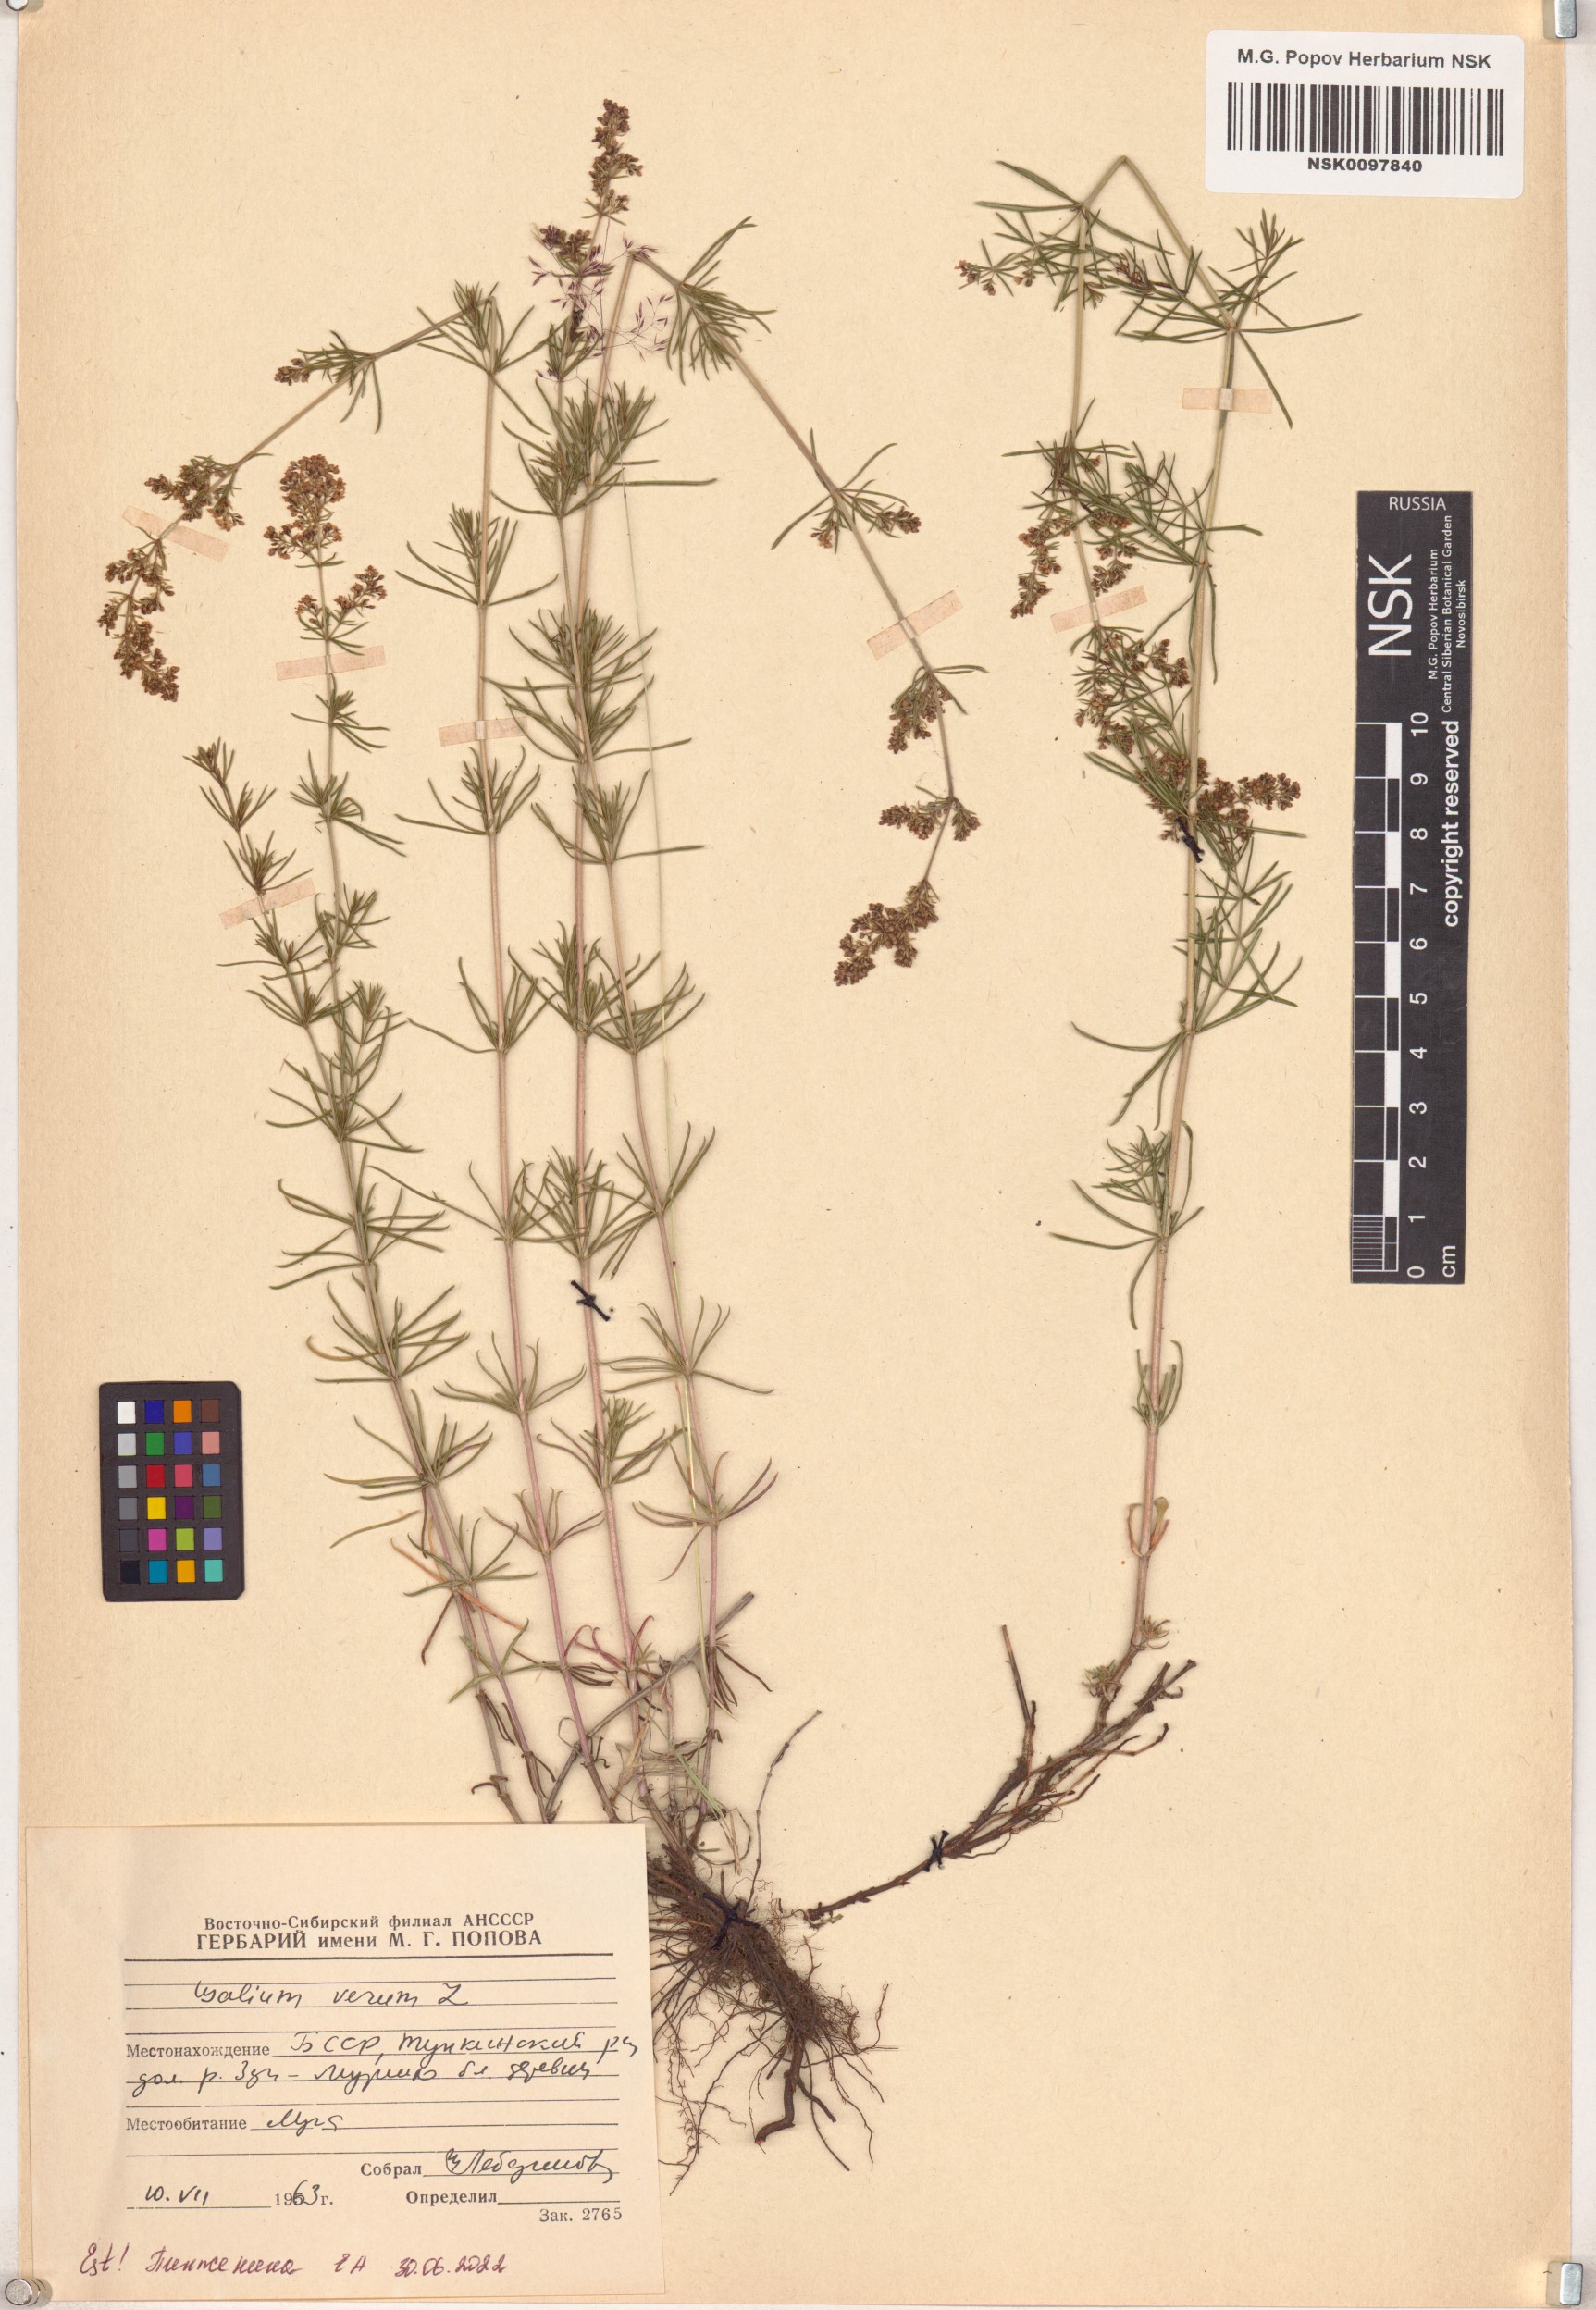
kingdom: Plantae
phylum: Tracheophyta
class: Magnoliopsida
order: Gentianales
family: Rubiaceae
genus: Galium
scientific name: Galium verum
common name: Lady's bedstraw
